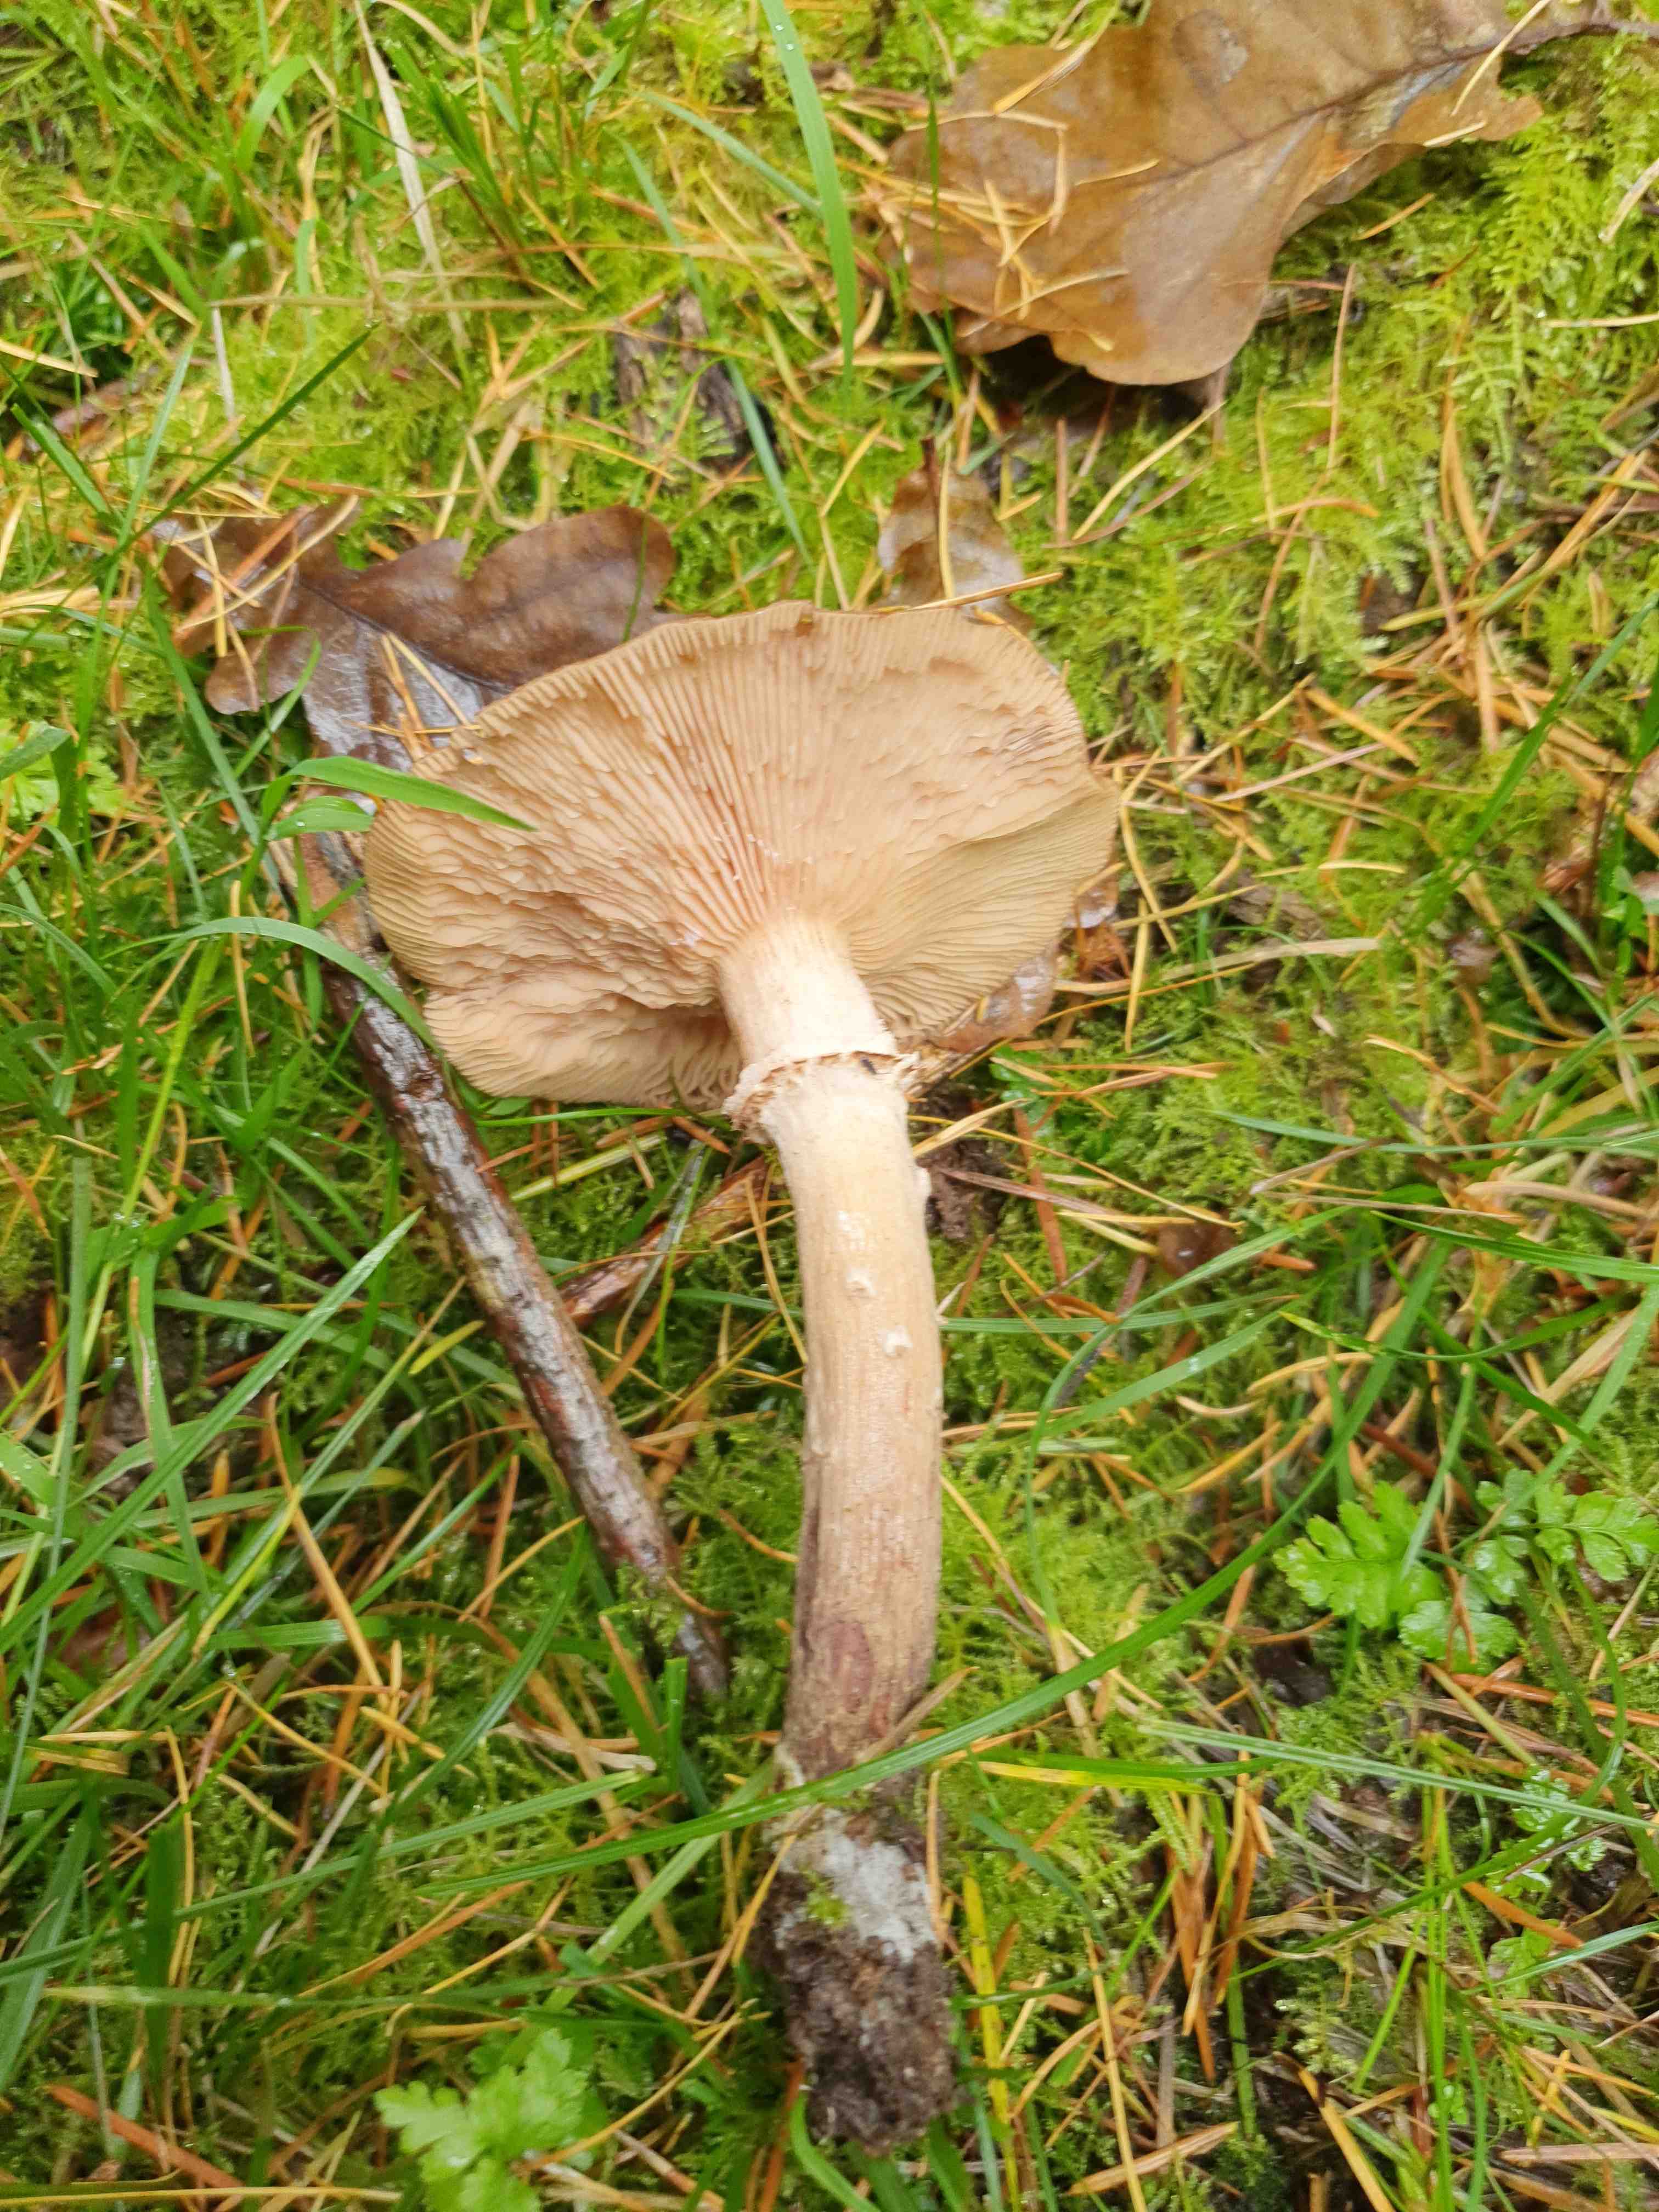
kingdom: Fungi
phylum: Basidiomycota
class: Agaricomycetes
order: Agaricales
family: Physalacriaceae
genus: Armillaria
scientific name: Armillaria ostoyae
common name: mørk honningsvamp
